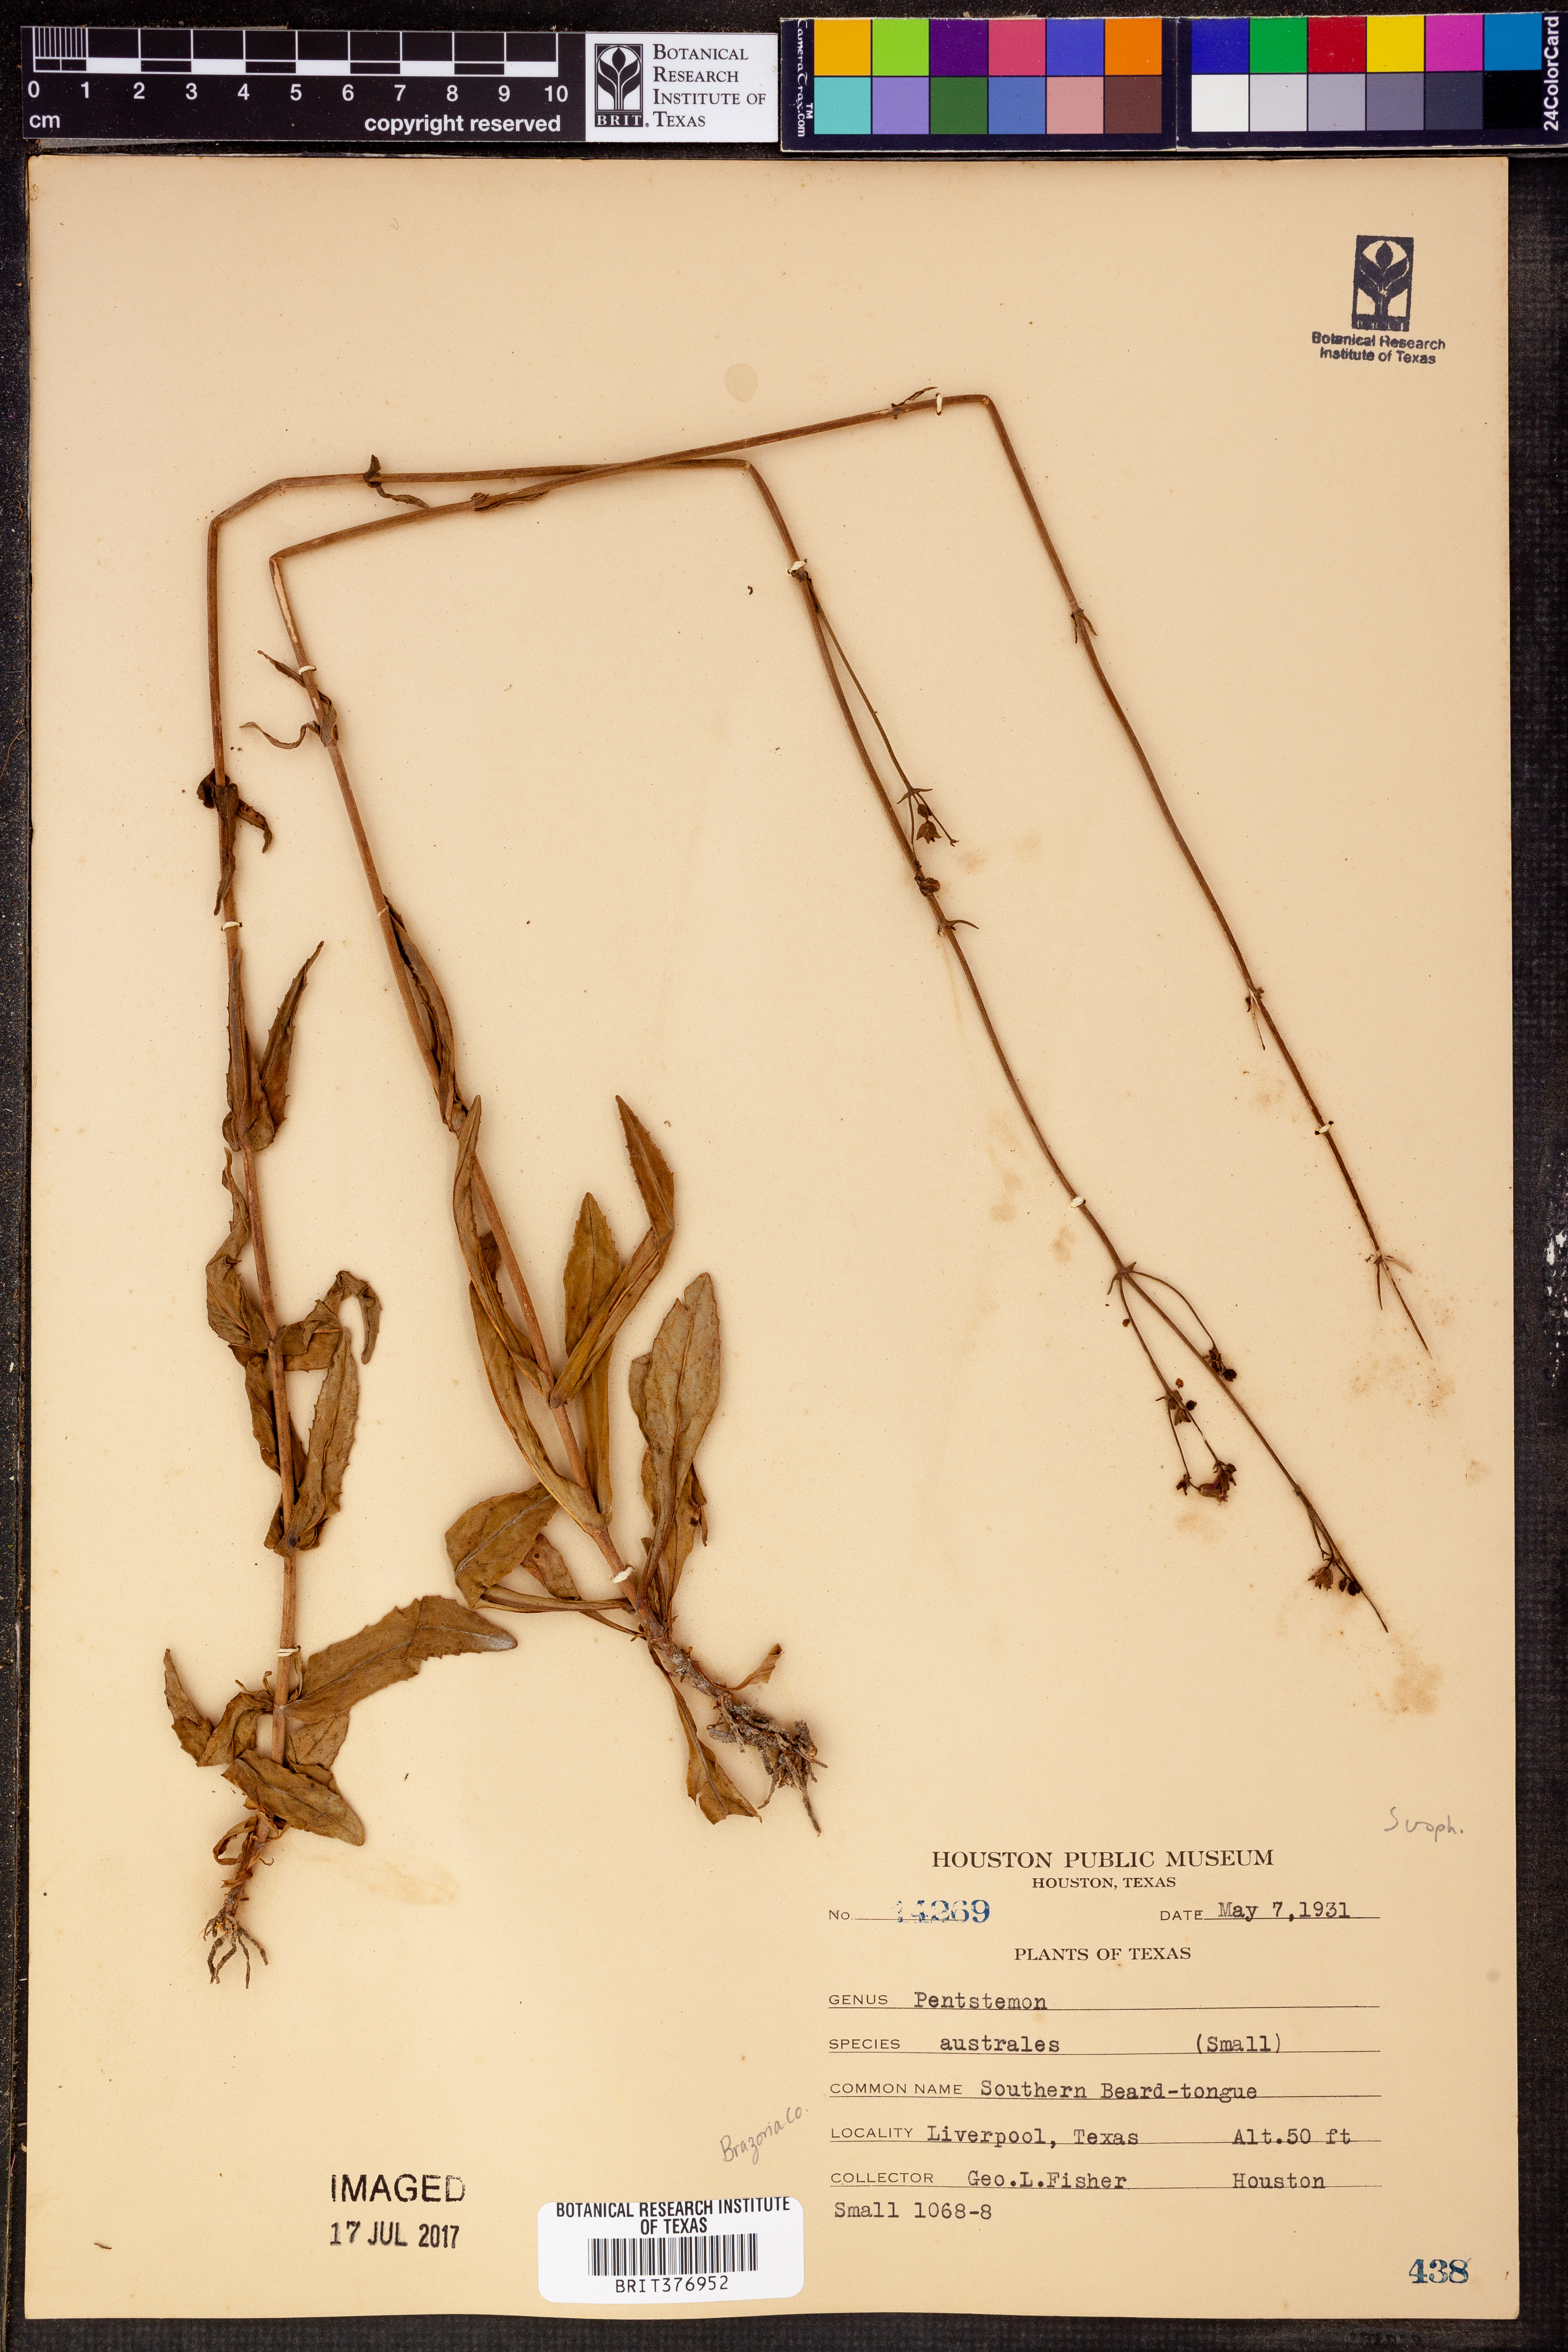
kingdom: Plantae
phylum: Tracheophyta
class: Magnoliopsida
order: Lamiales
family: Plantaginaceae
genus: Penstemon
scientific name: Penstemon australis
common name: Southeastern beardtongue
